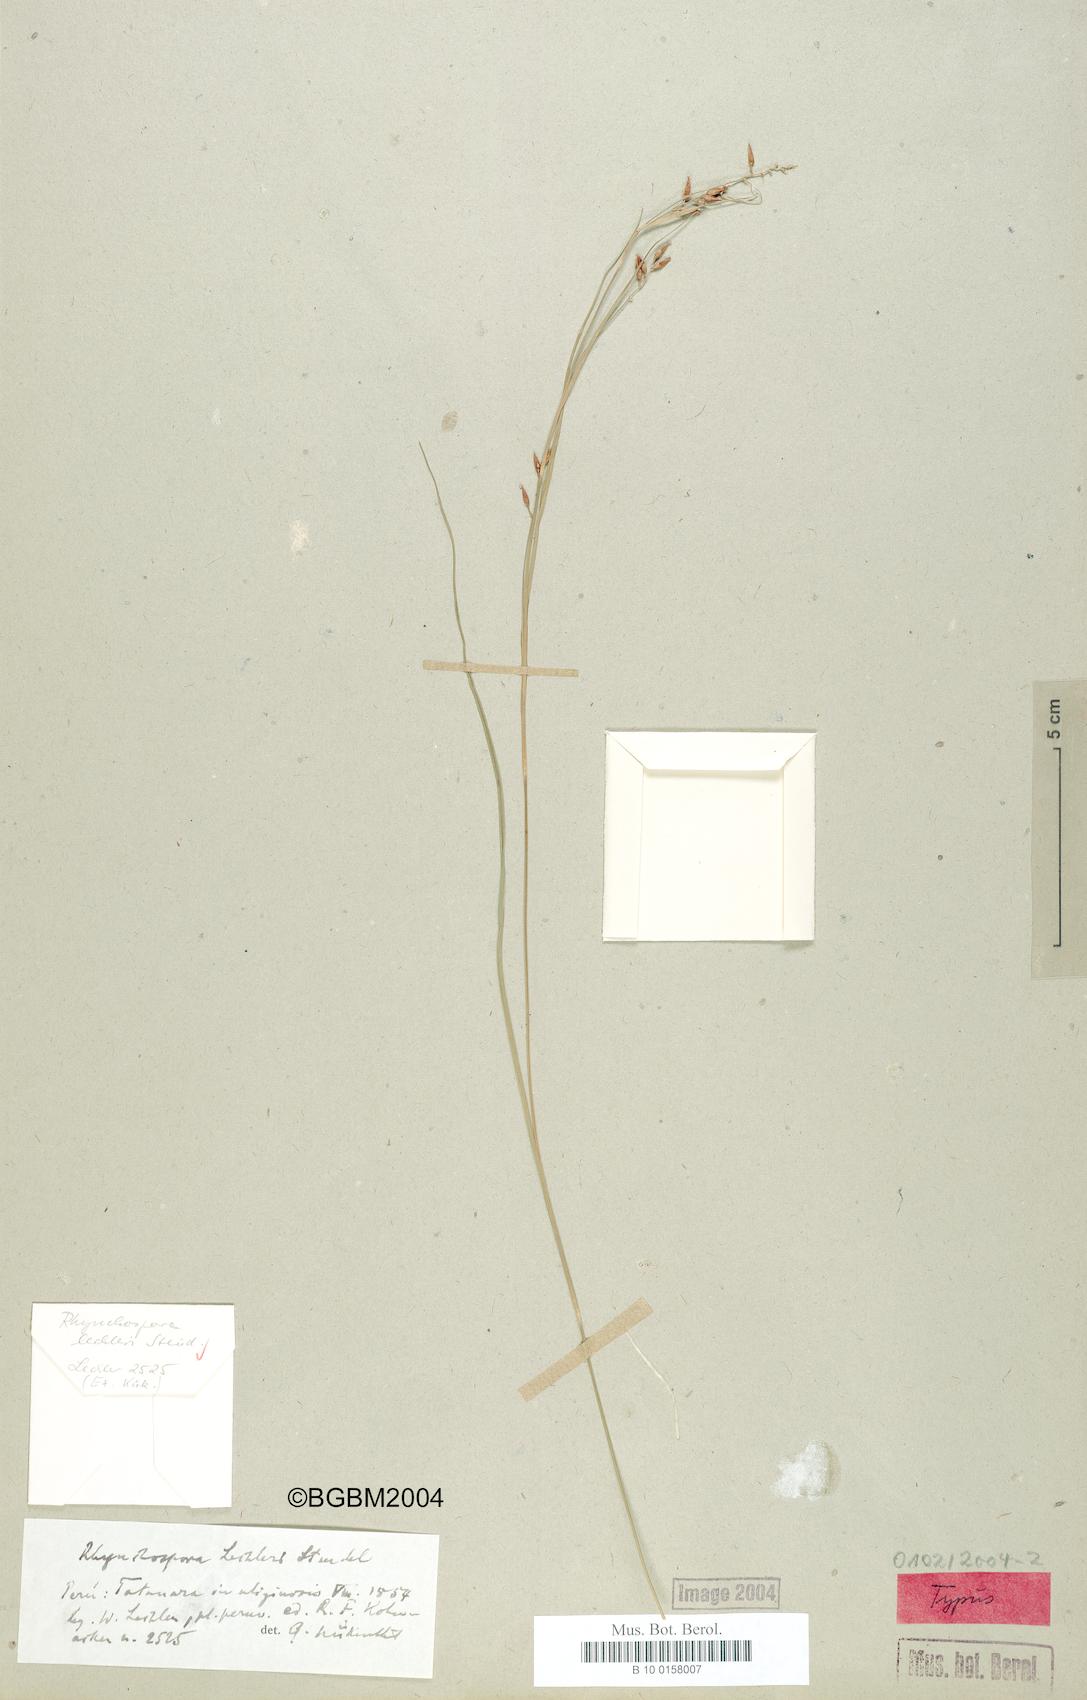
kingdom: Plantae
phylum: Tracheophyta
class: Liliopsida
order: Poales
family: Cyperaceae
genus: Rhynchospora
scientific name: Rhynchospora vulcani
